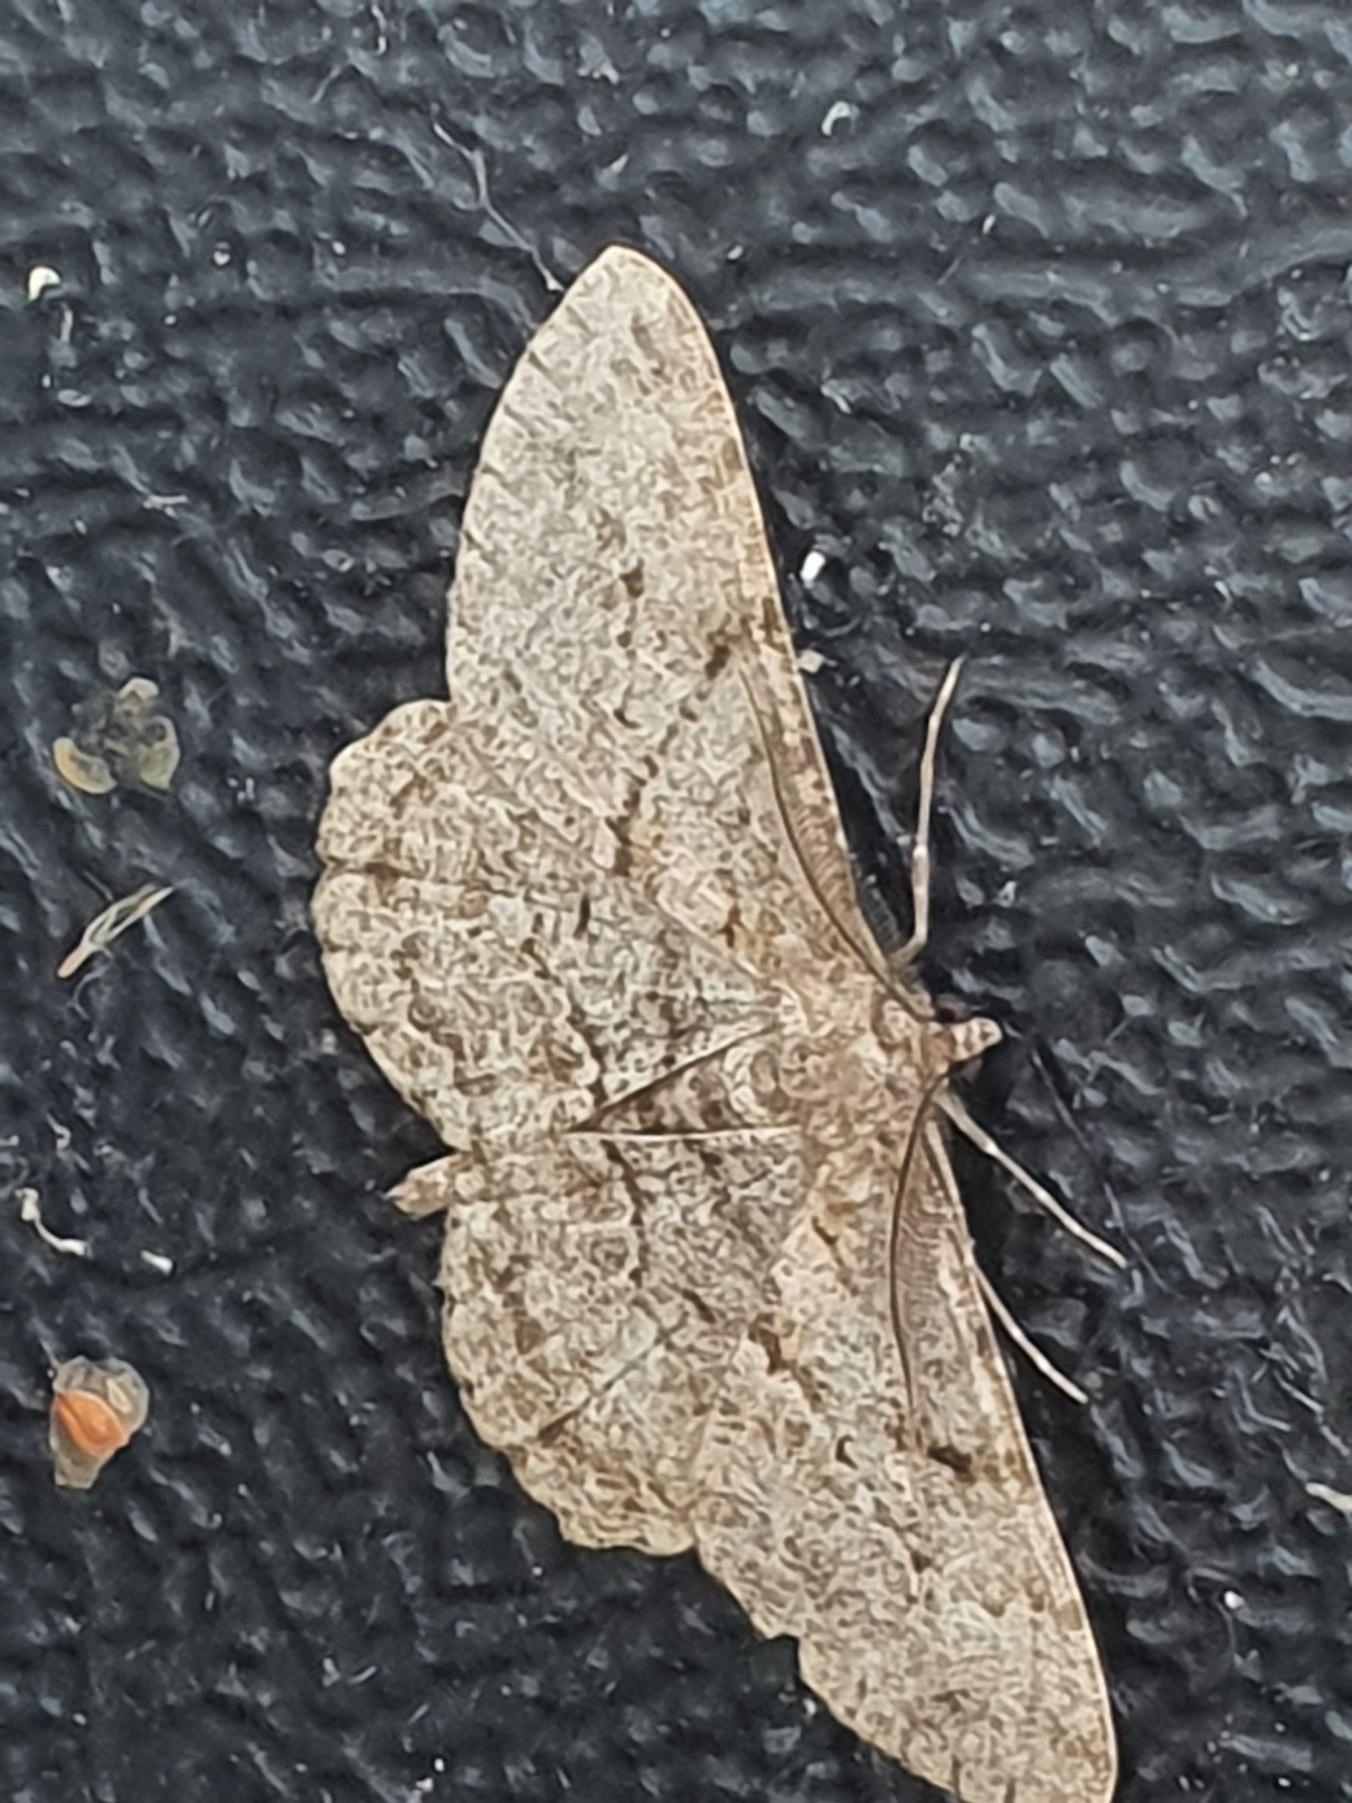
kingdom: Animalia
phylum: Arthropoda
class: Insecta
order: Lepidoptera
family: Geometridae
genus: Peribatodes
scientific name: Peribatodes rhomboidaria
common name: Frugttræ-barkmåler
